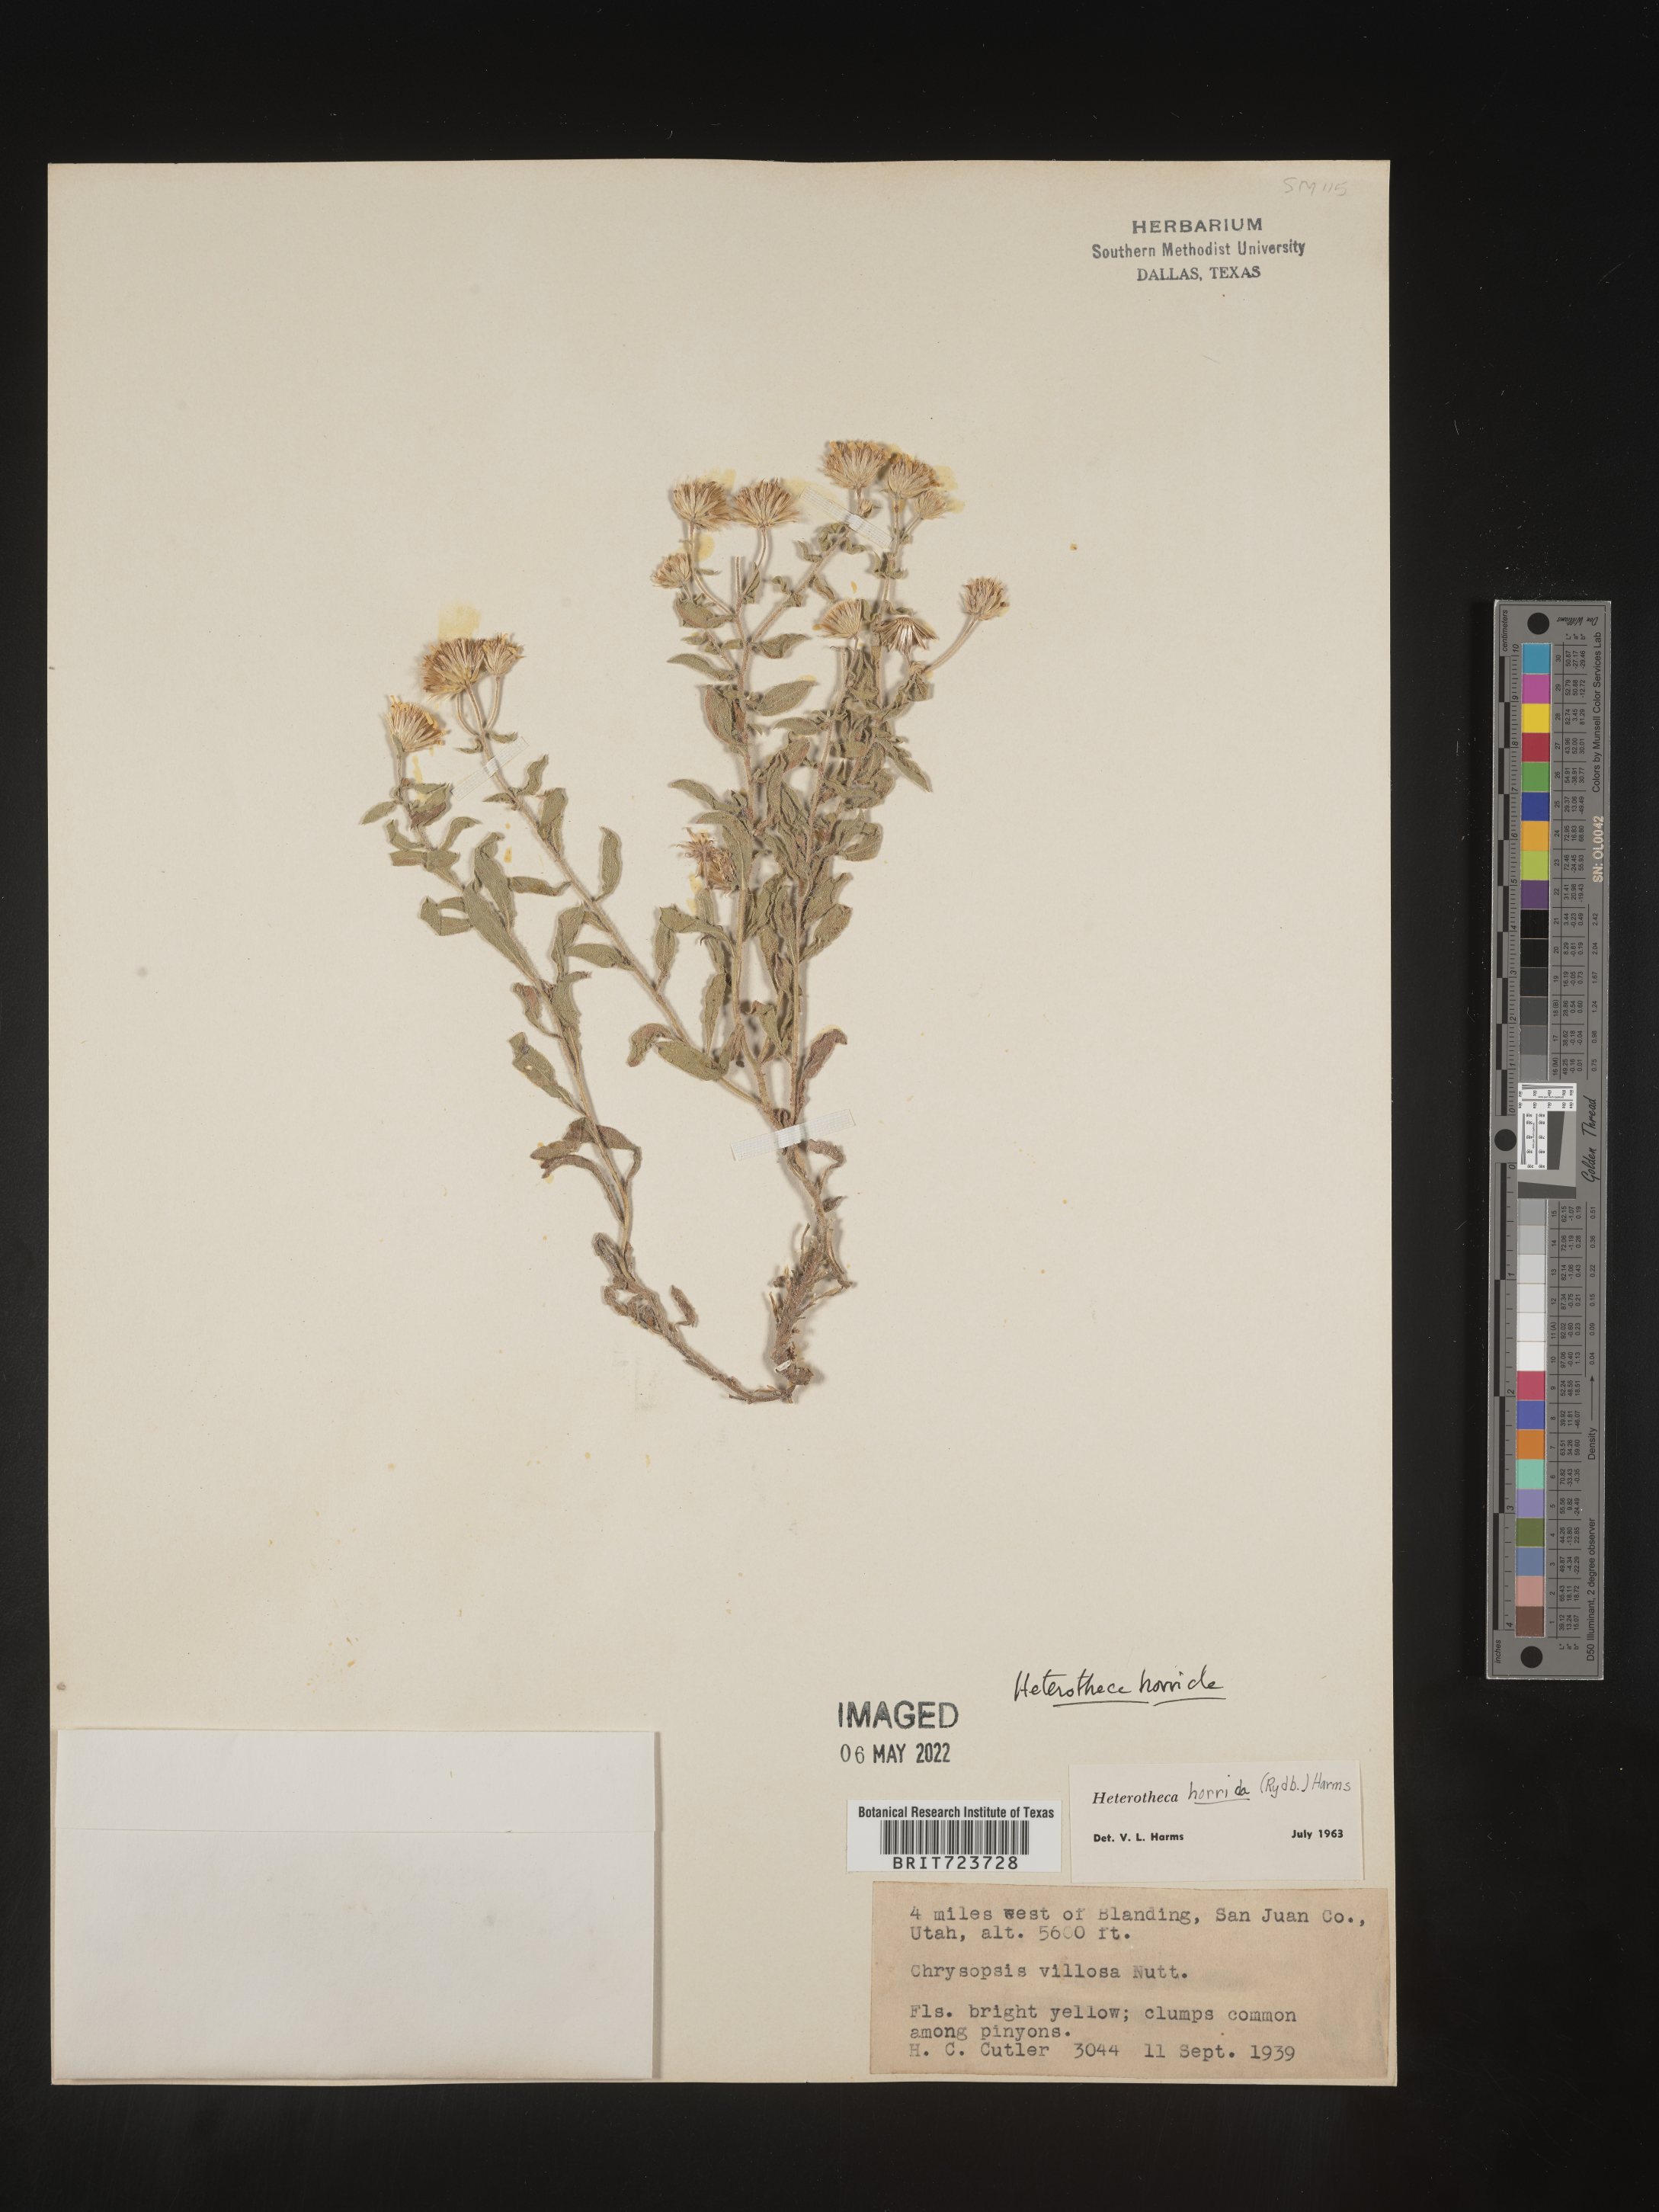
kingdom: Plantae
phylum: Tracheophyta
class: Magnoliopsida
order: Asterales
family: Asteraceae
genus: Heterotheca
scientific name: Heterotheca hirsutissima
